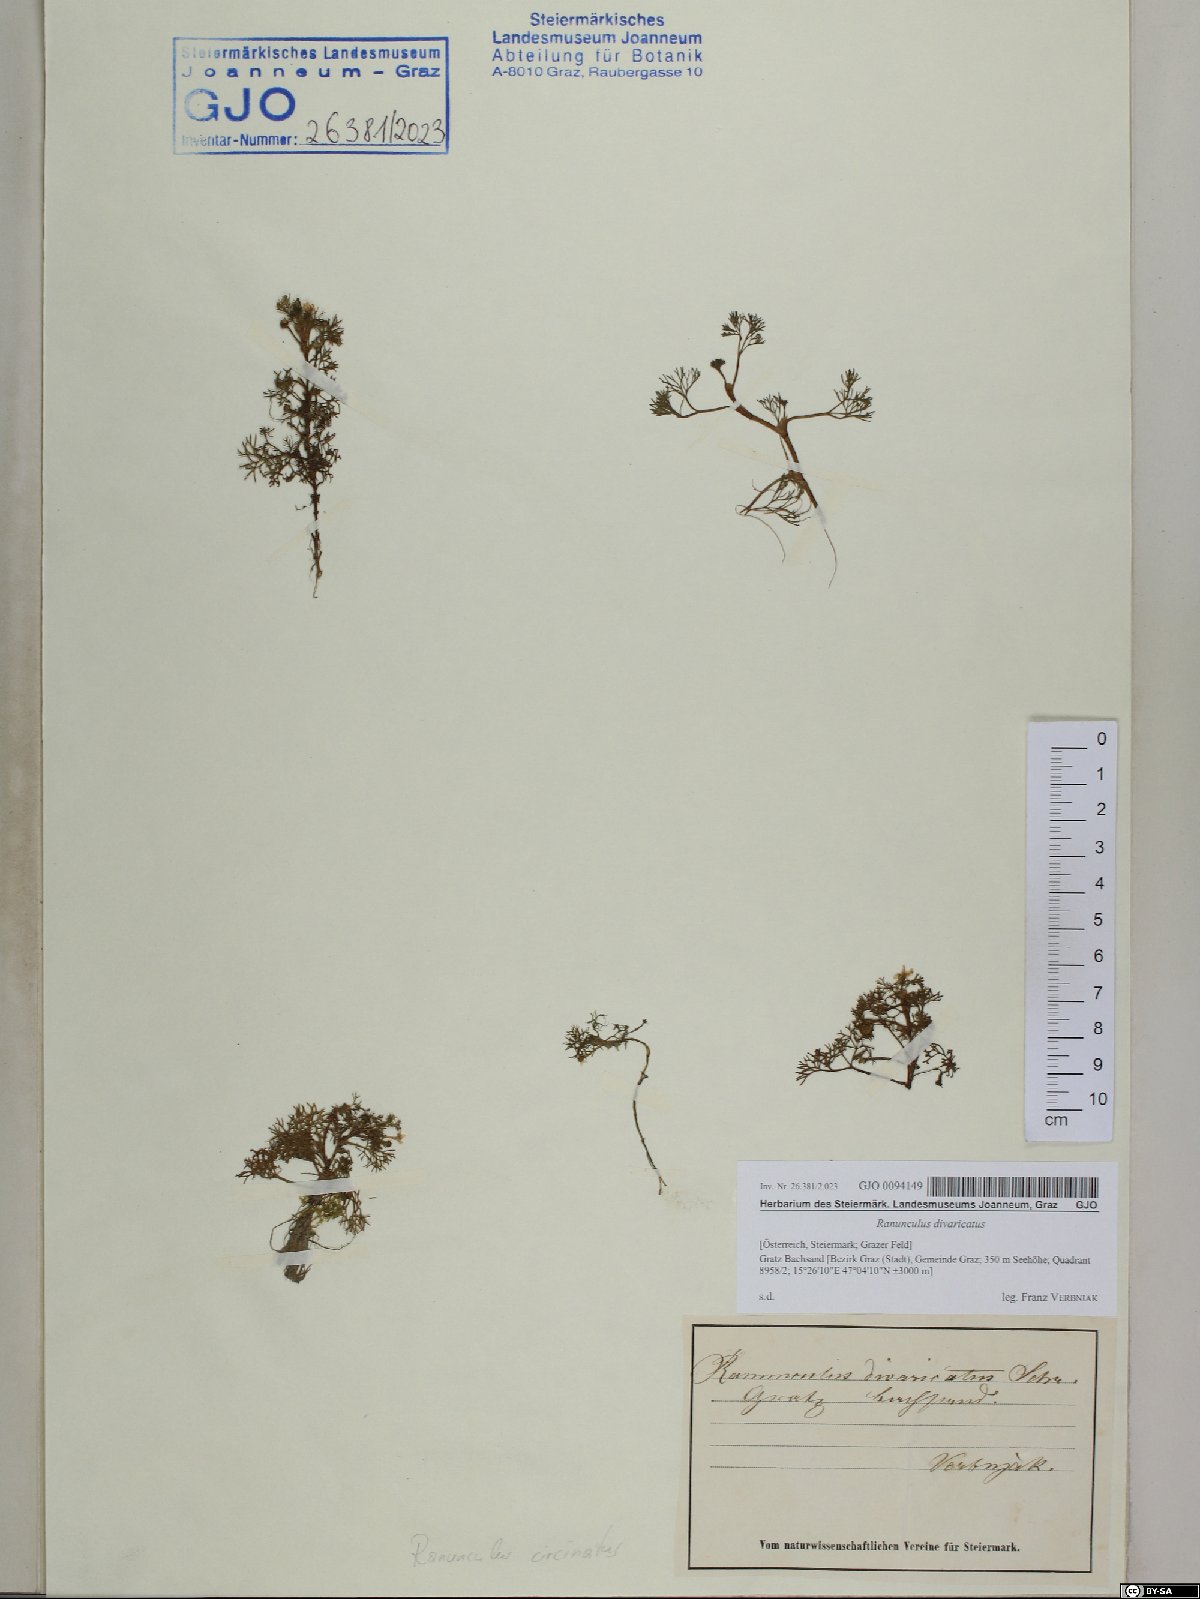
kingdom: Plantae
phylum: Tracheophyta
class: Magnoliopsida
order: Ranunculales
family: Ranunculaceae
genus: Ranunculus
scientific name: Ranunculus trichophyllus
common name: Thread-leaved water-crowfoot
